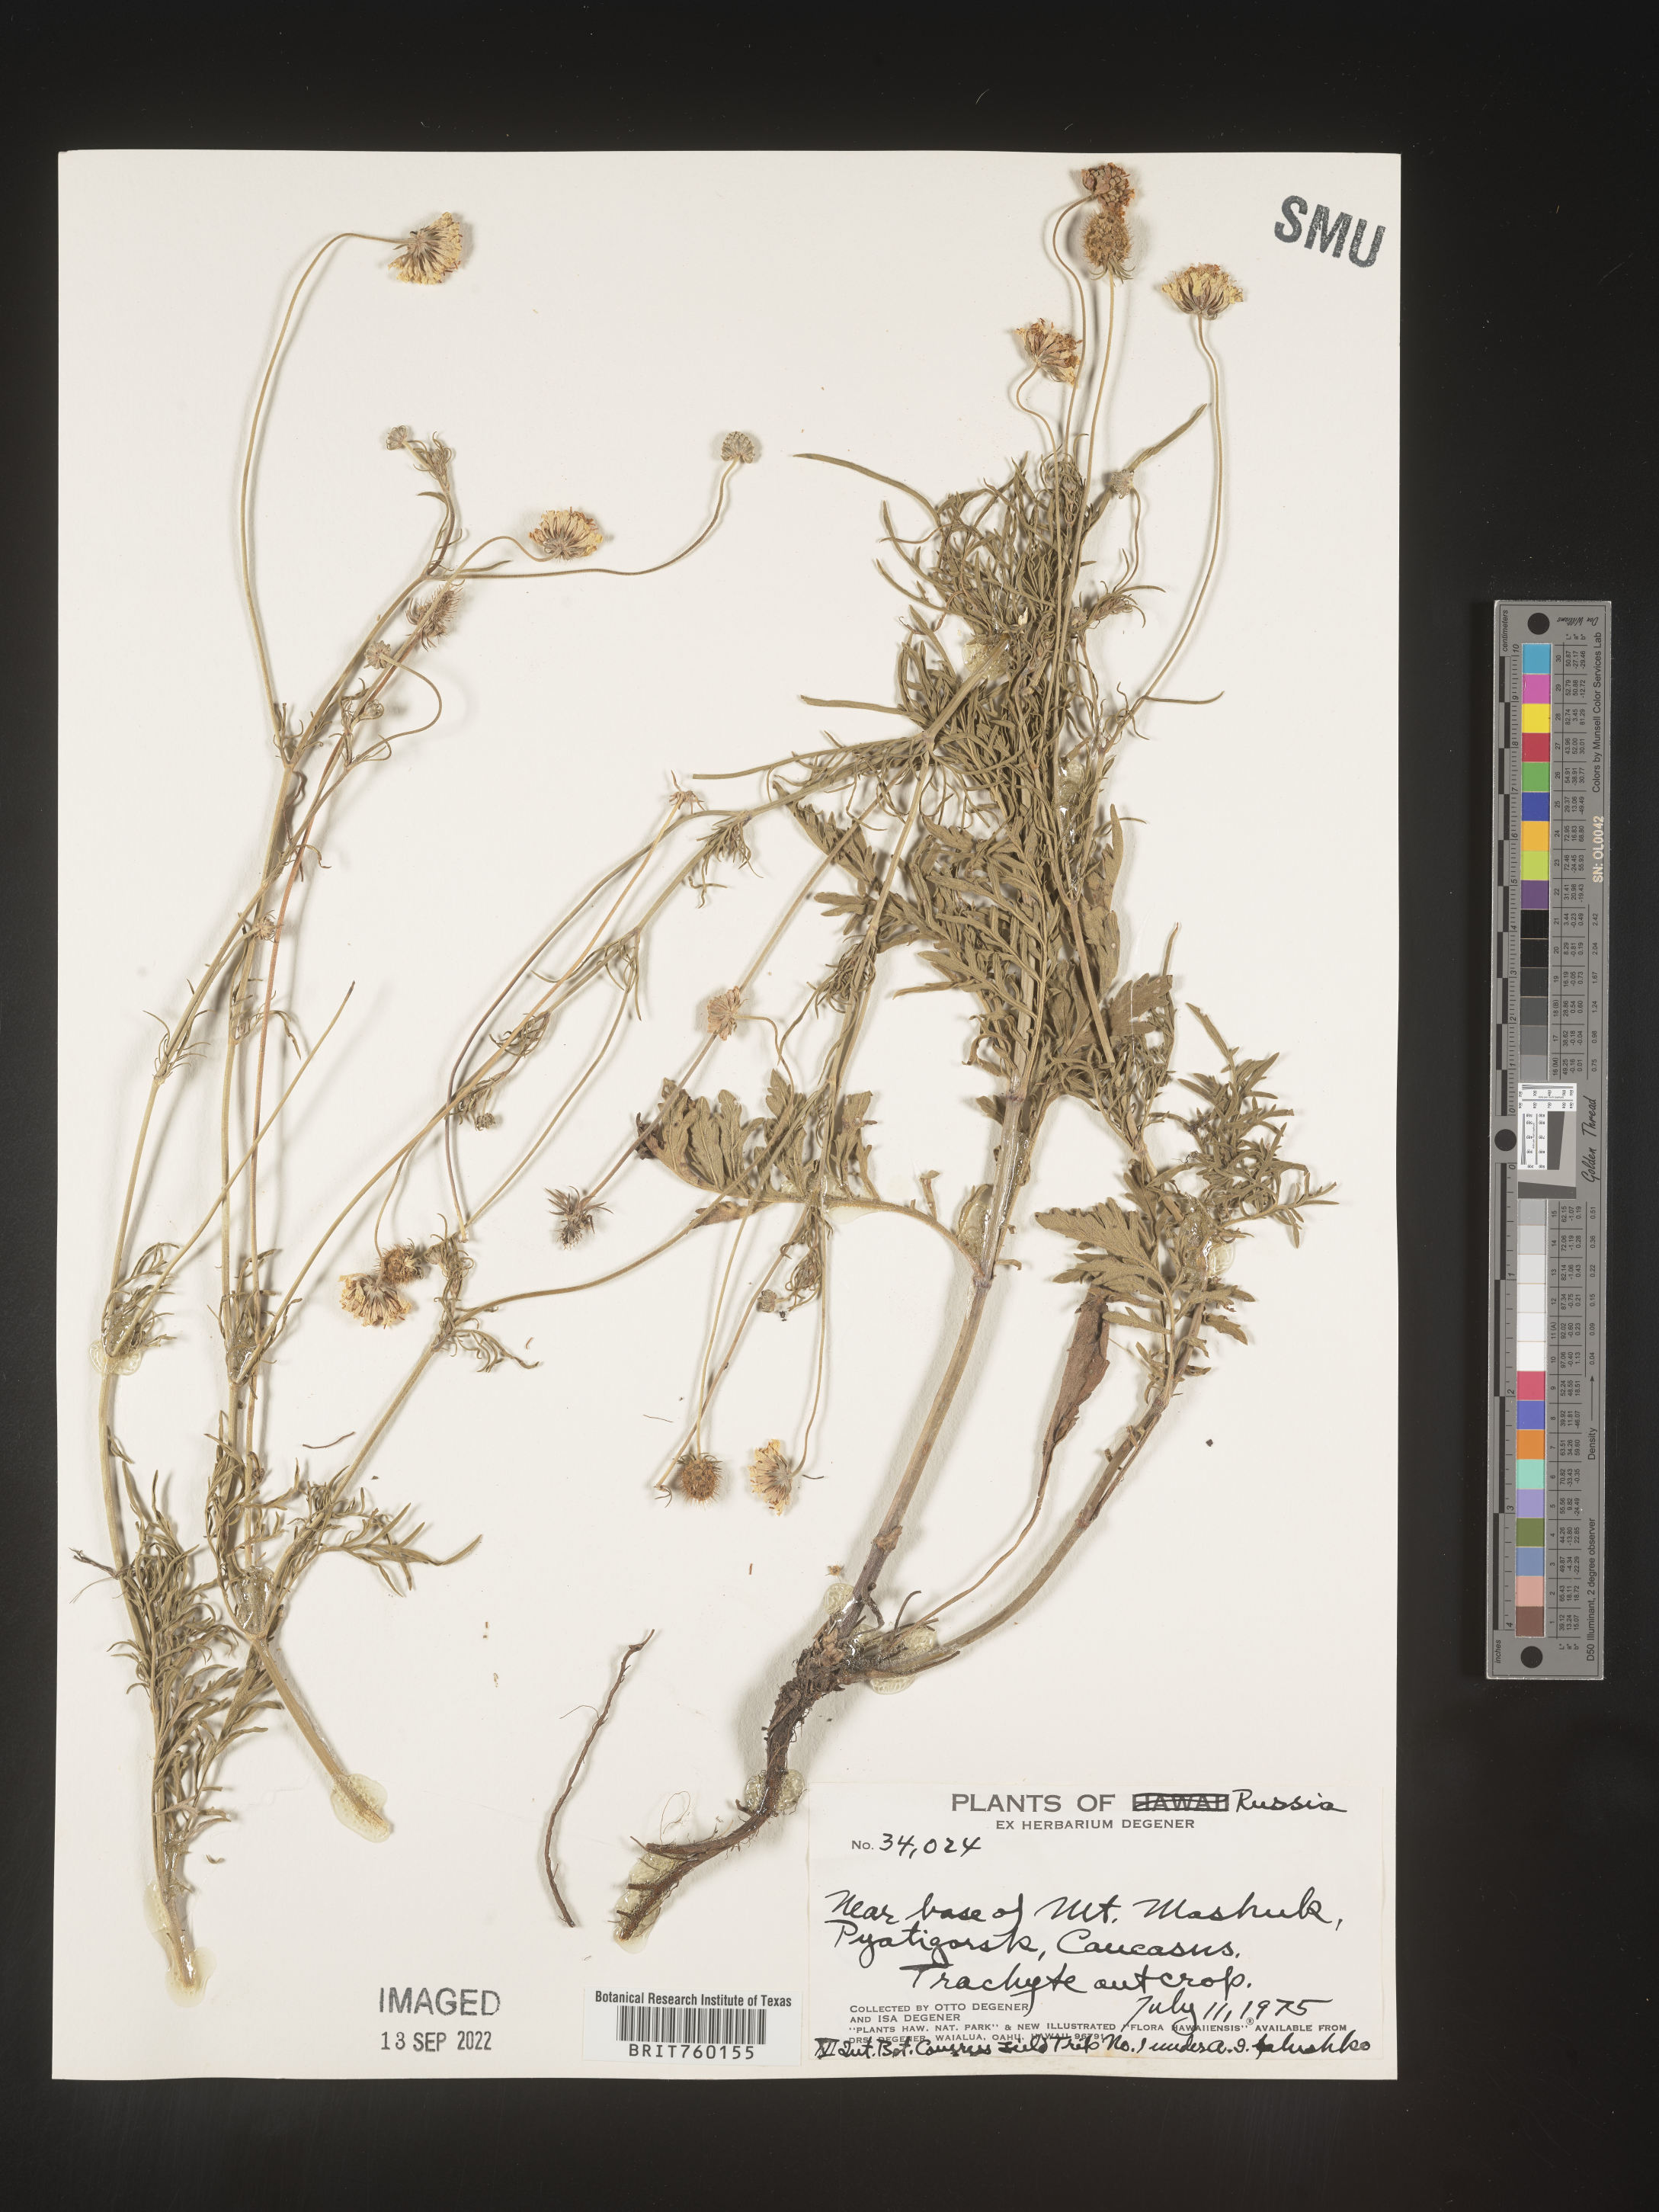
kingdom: Plantae
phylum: Tracheophyta
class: Magnoliopsida
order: Asterales
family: Asteraceae
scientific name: Asteraceae
